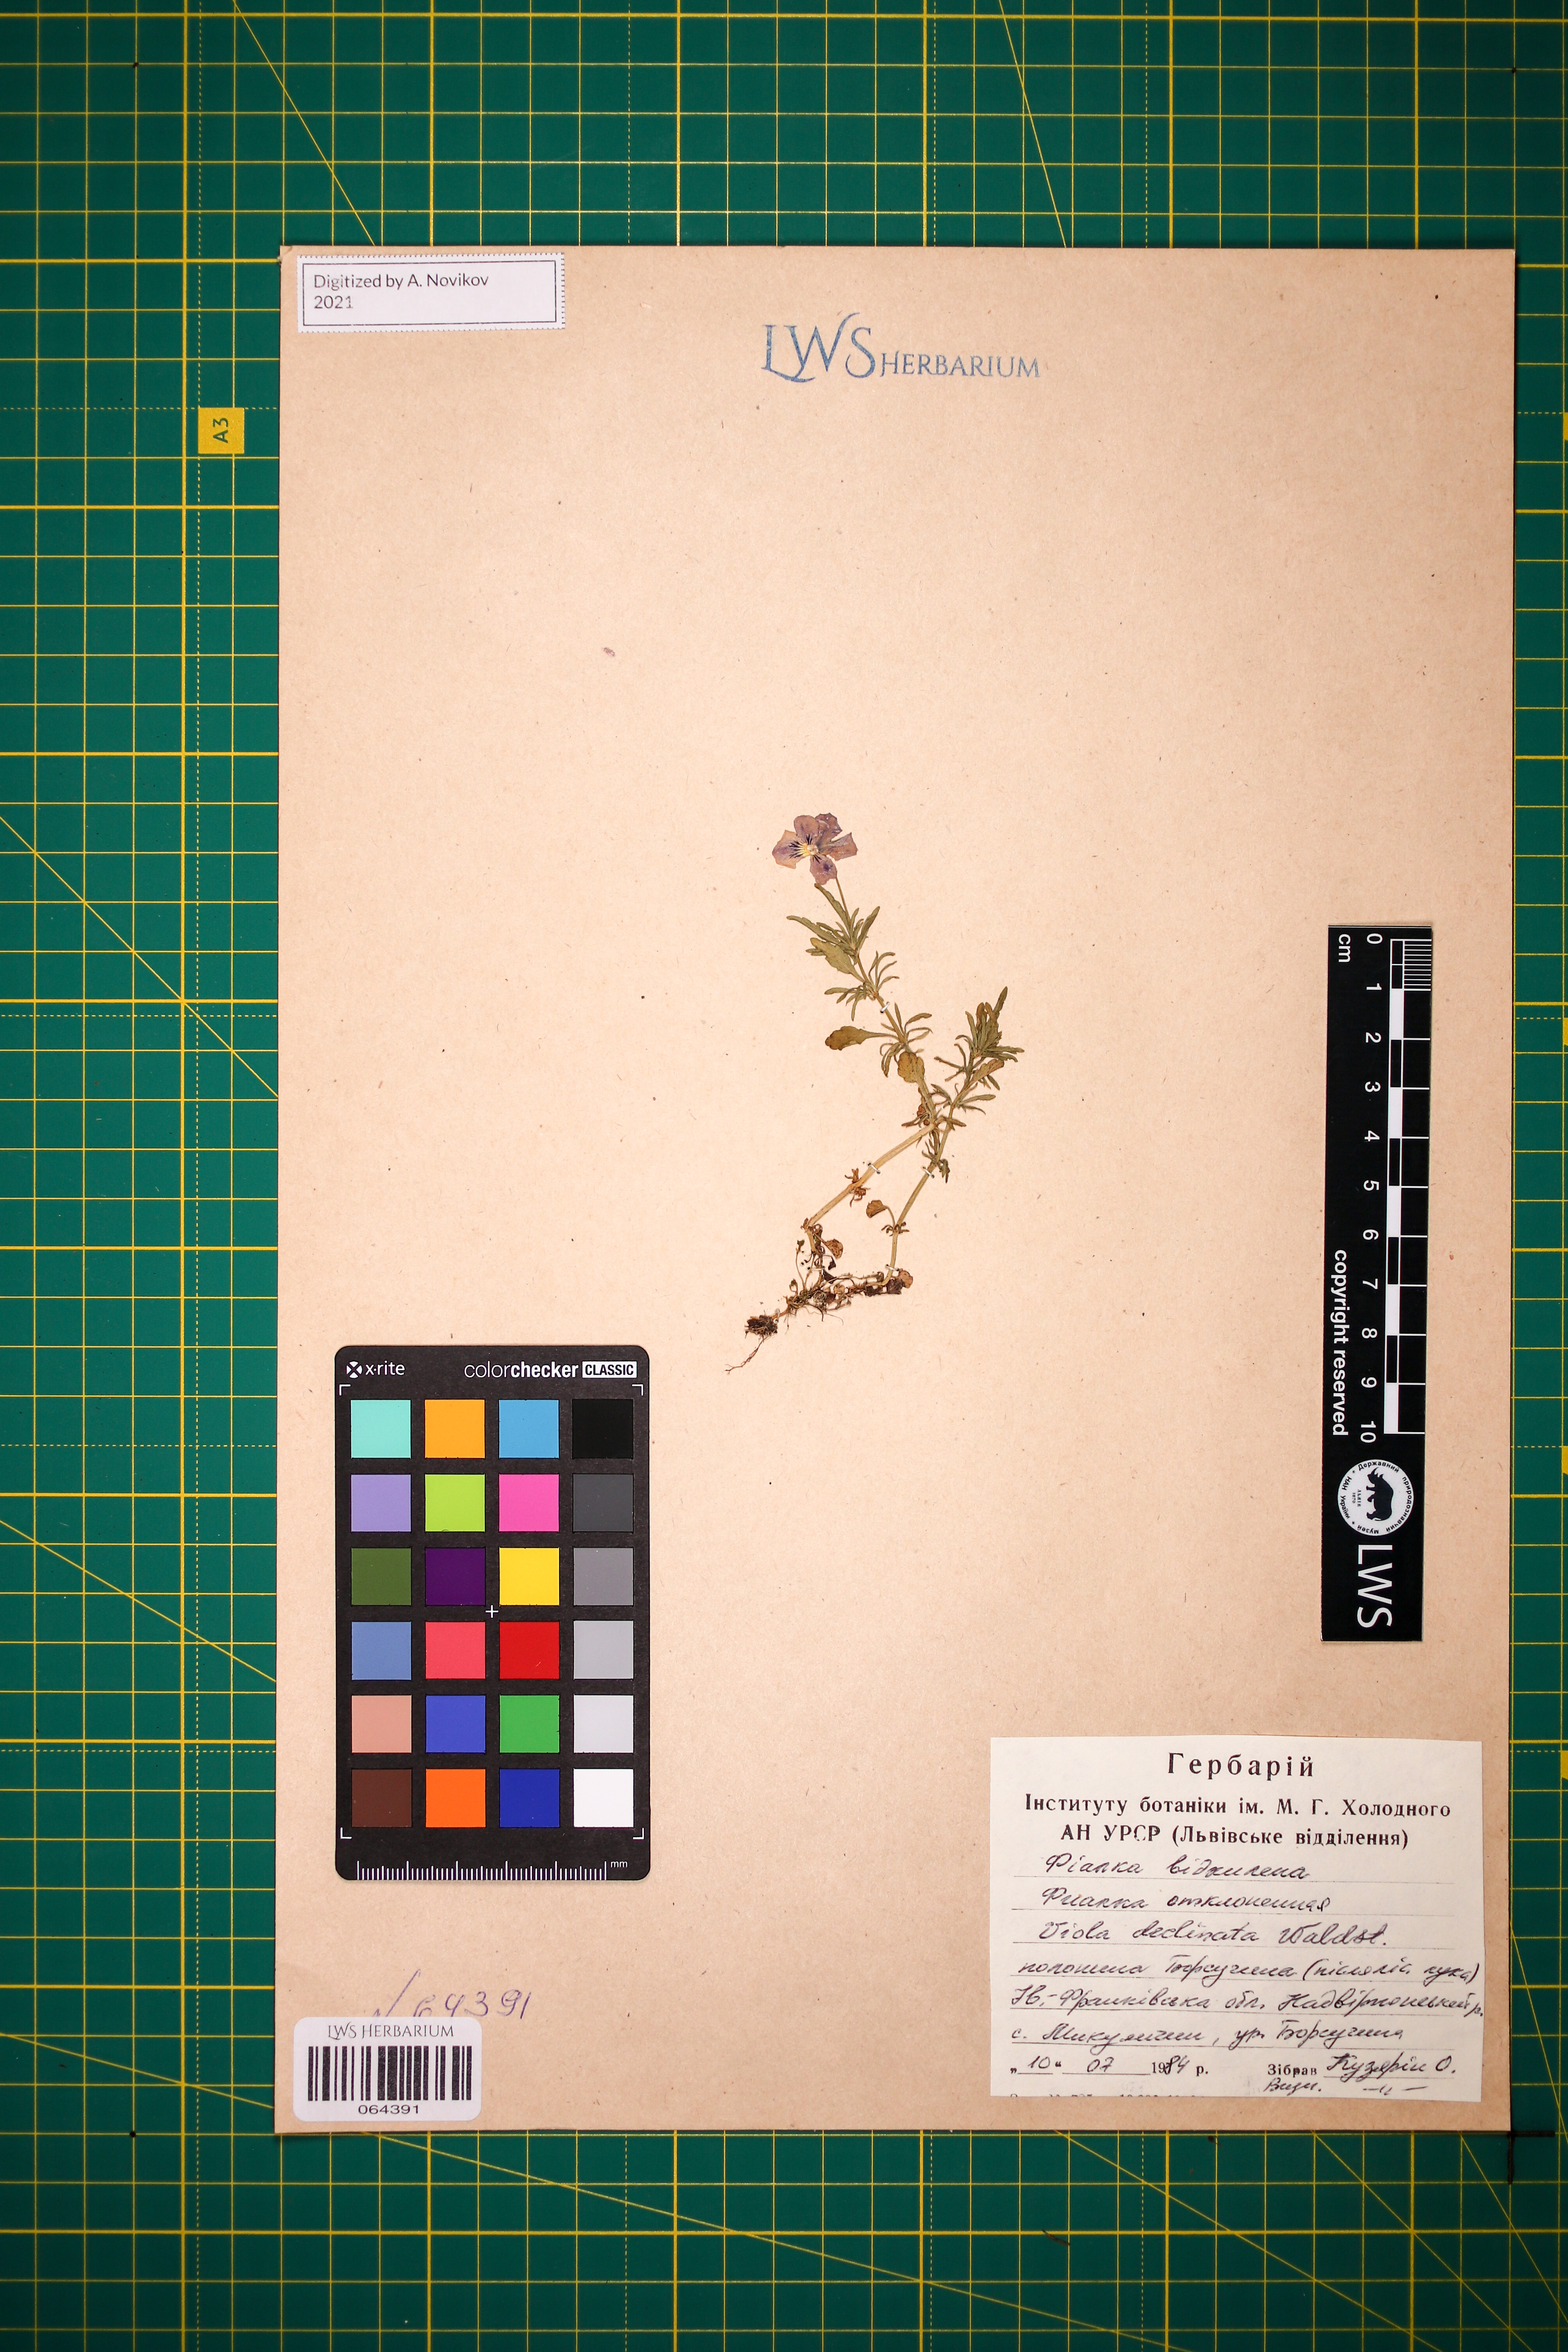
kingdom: Plantae
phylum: Tracheophyta
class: Magnoliopsida
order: Malpighiales
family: Violaceae
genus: Viola
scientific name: Viola declinata
